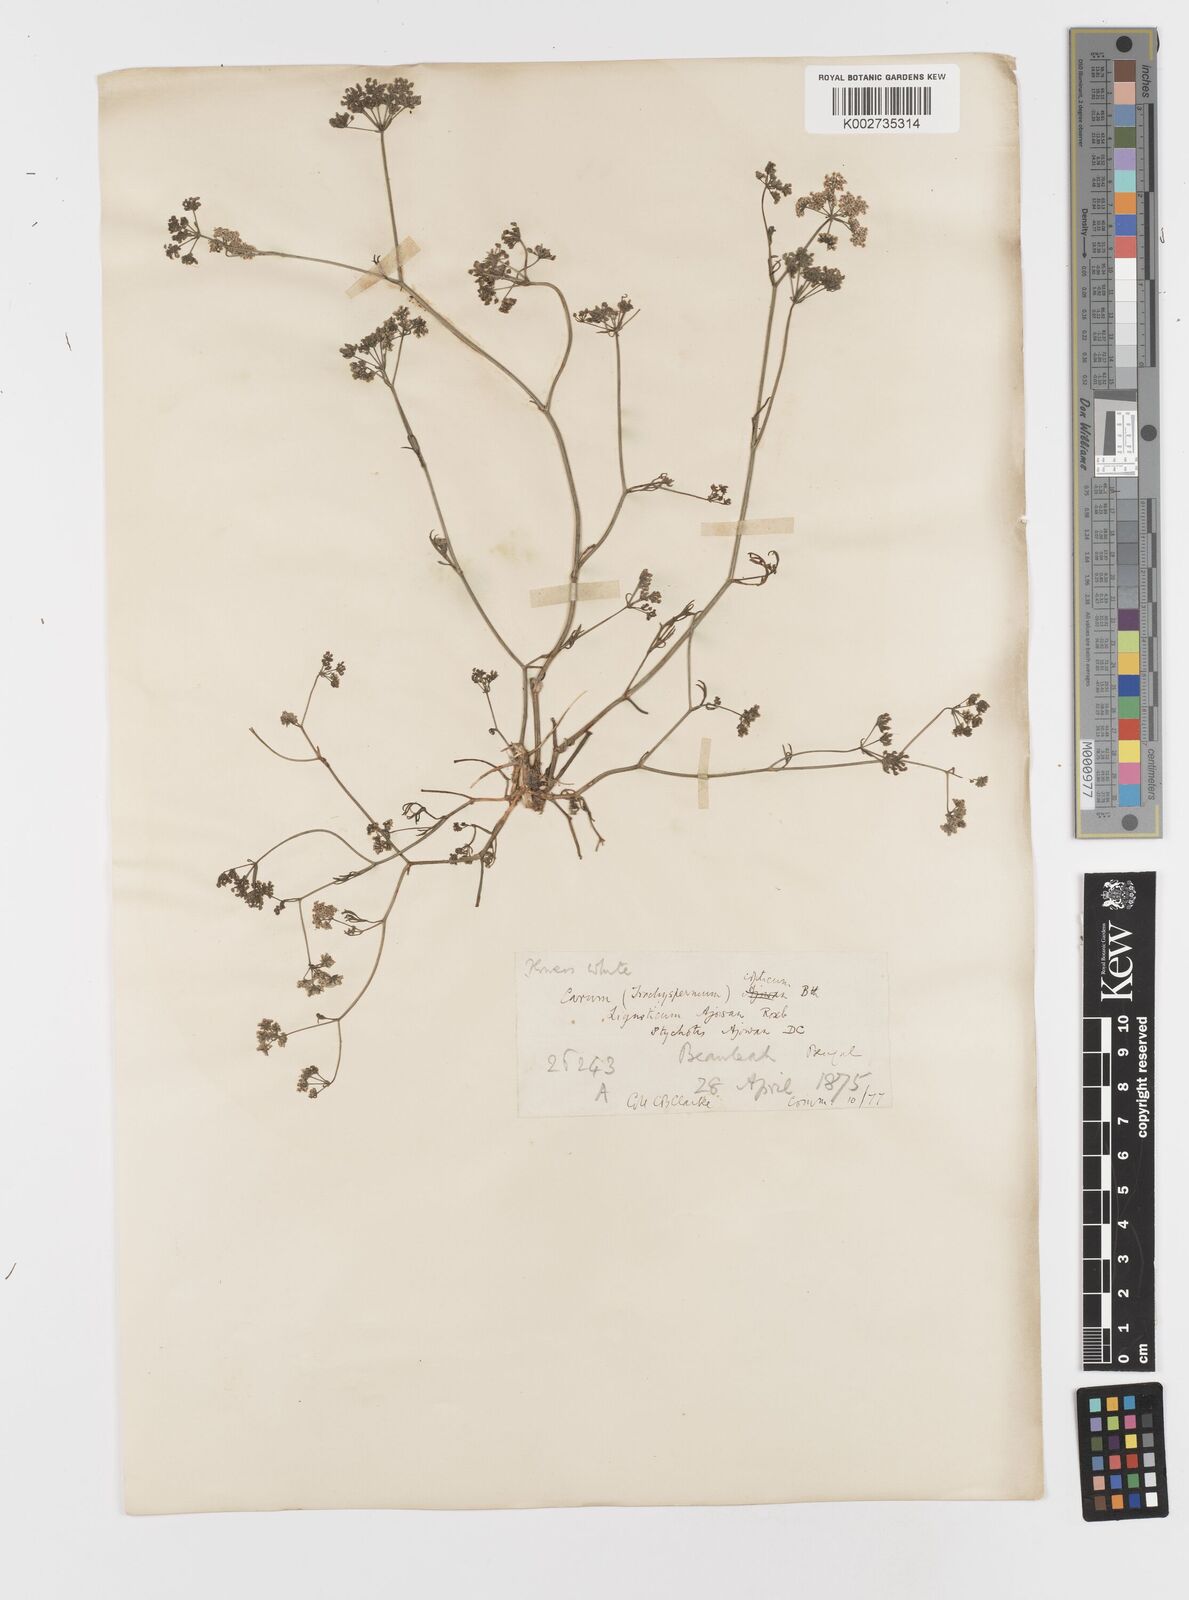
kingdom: Plantae
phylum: Tracheophyta
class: Magnoliopsida
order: Apiales
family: Apiaceae
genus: Trachyspermum
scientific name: Trachyspermum ammi
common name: Ajowan
